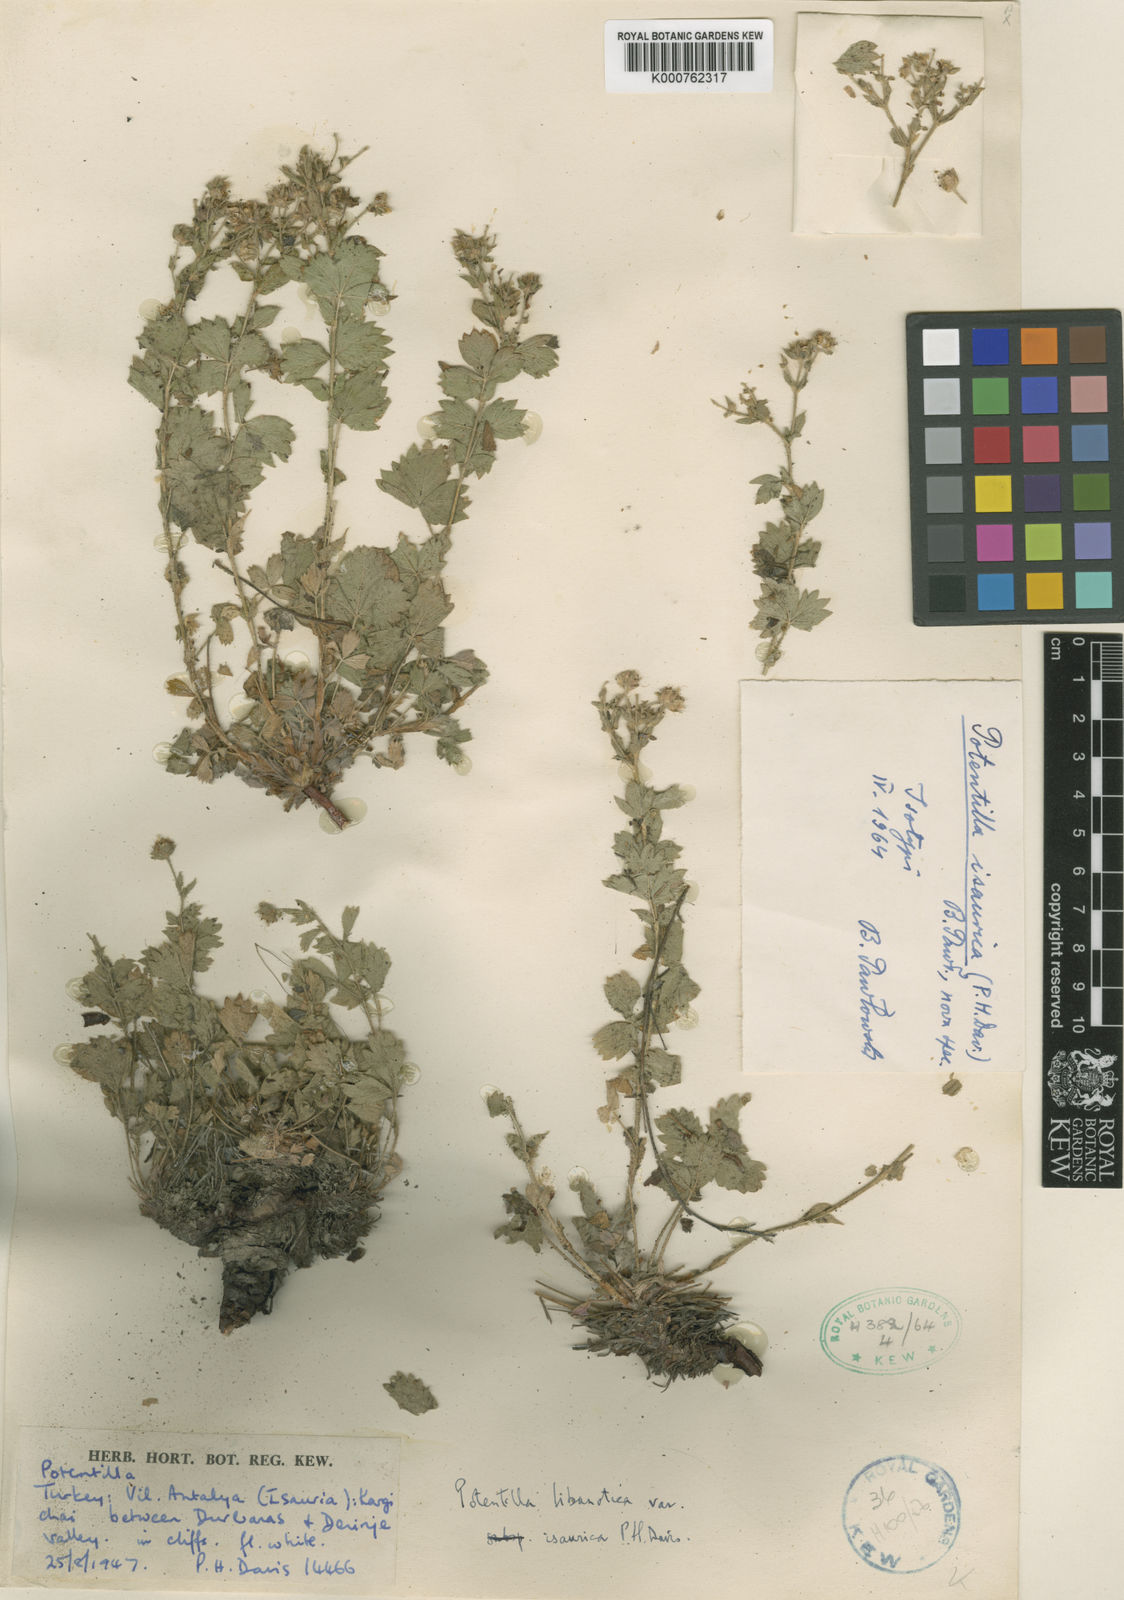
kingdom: Plantae
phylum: Tracheophyta
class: Magnoliopsida
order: Rosales
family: Rosaceae
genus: Potentilla
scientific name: Potentilla libanotica
